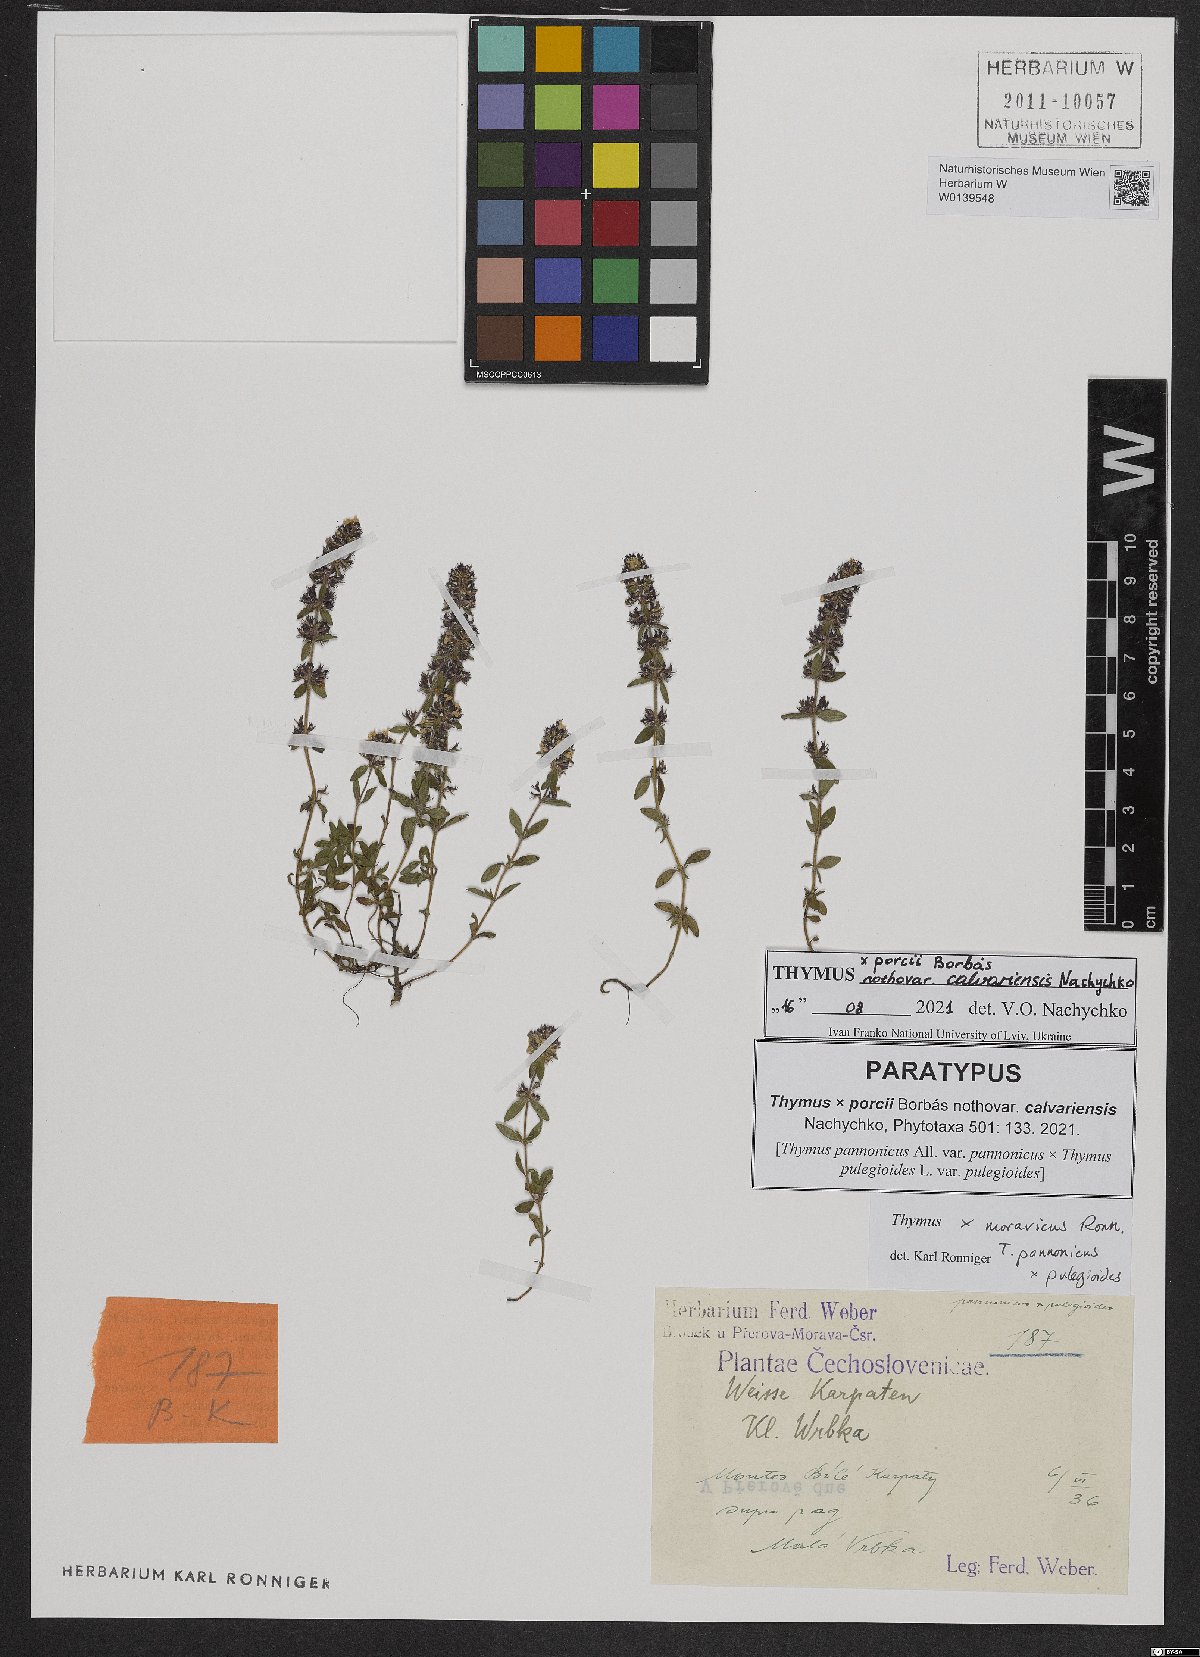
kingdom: Plantae
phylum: Tracheophyta
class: Magnoliopsida
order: Lamiales
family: Lamiaceae
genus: Thymus
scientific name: Thymus porcii
